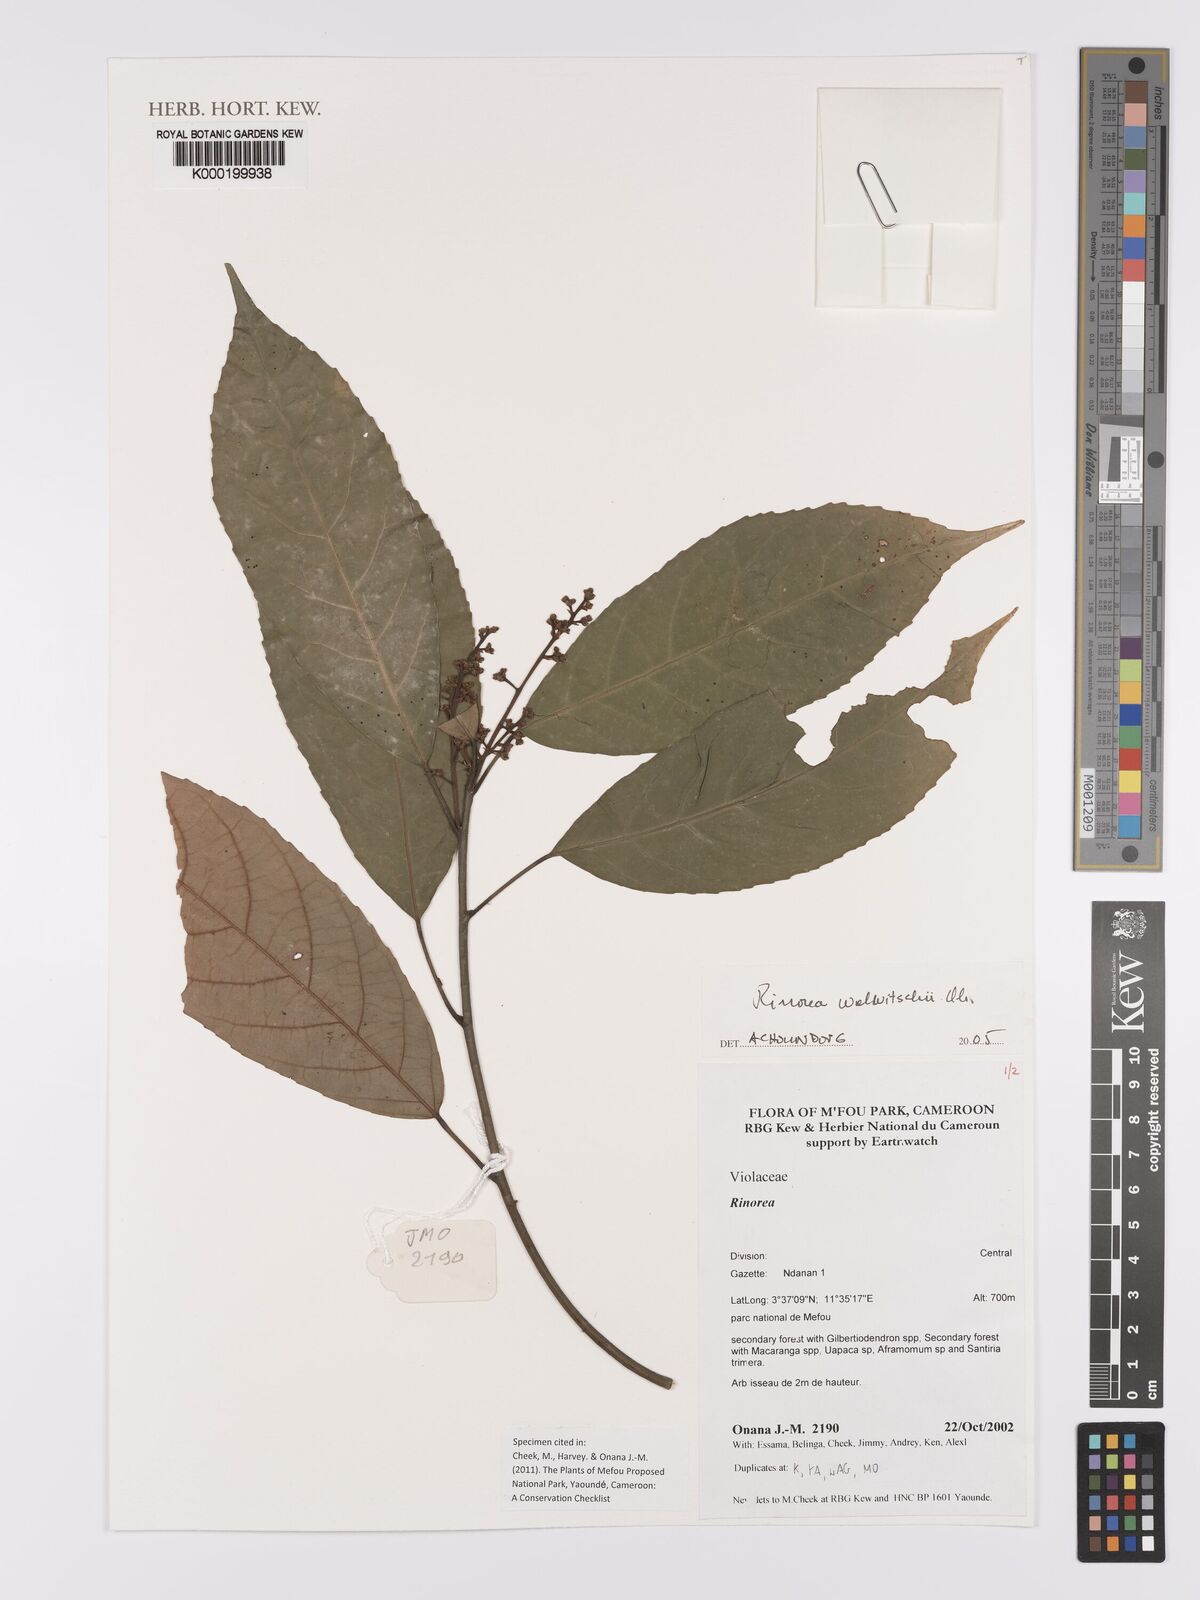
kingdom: Plantae
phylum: Tracheophyta
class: Magnoliopsida
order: Malpighiales
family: Violaceae
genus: Rinorea
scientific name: Rinorea welwitschii
